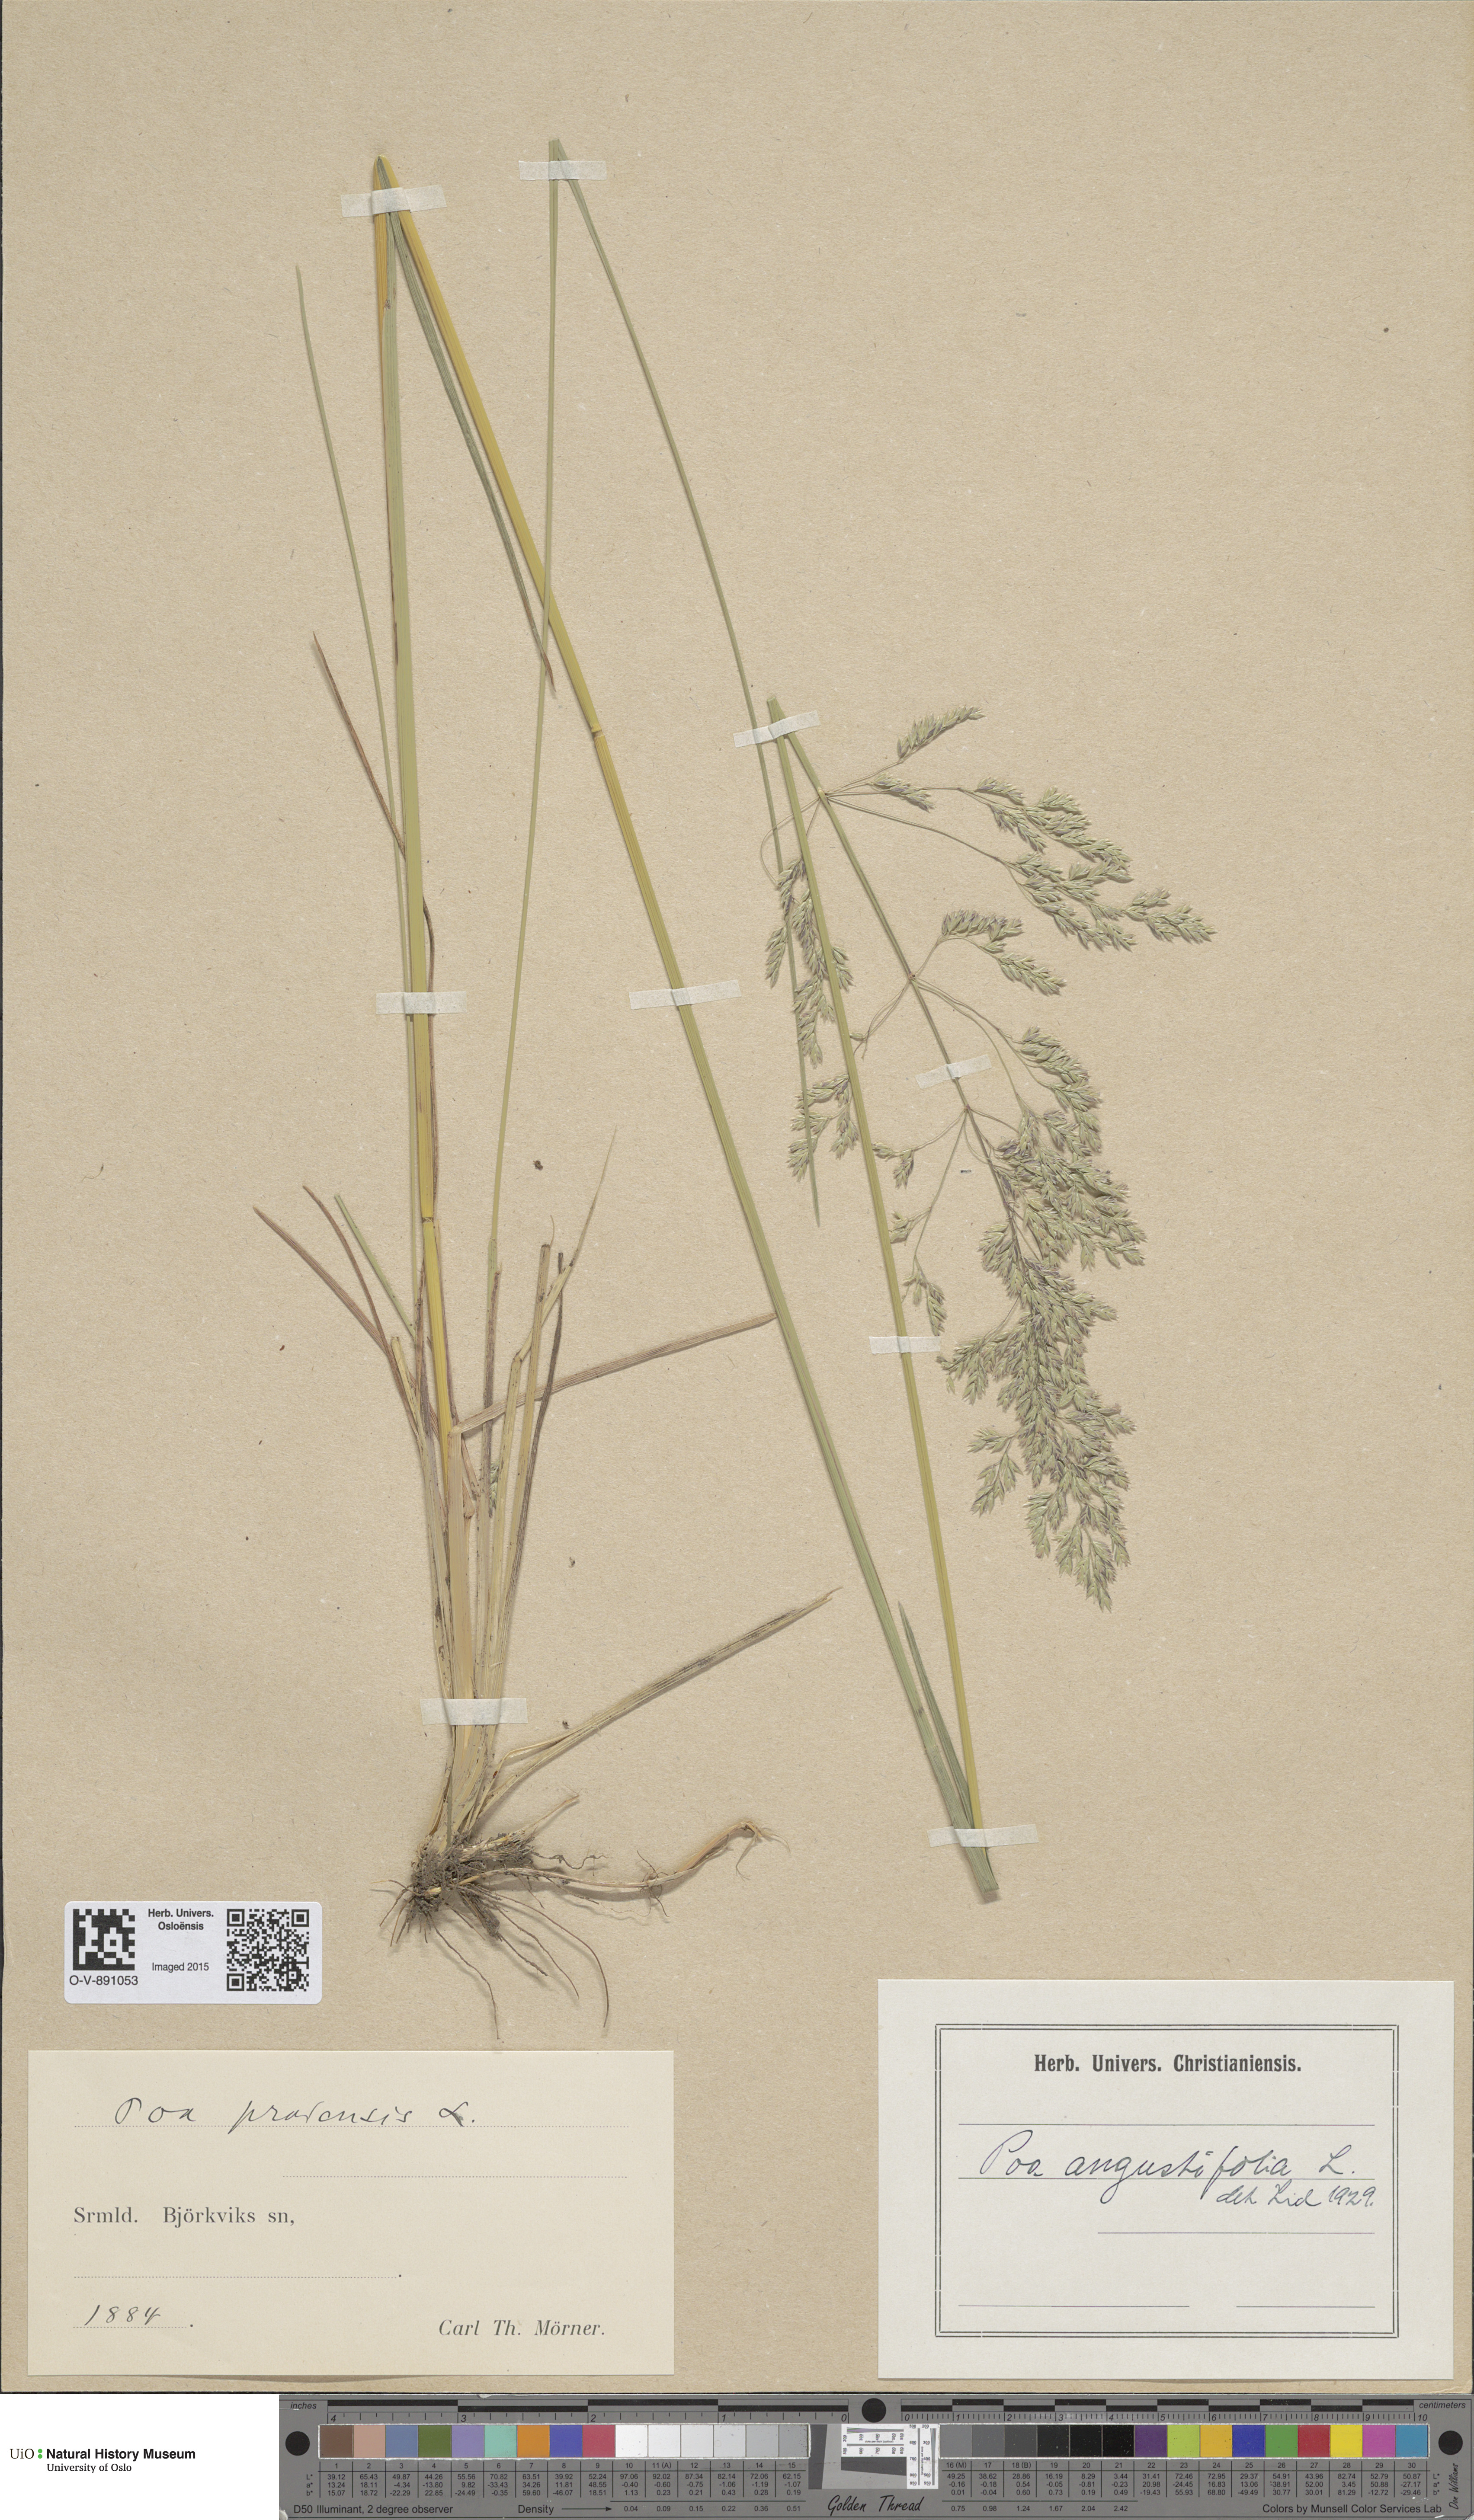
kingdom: Plantae
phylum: Tracheophyta
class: Liliopsida
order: Poales
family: Poaceae
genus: Poa
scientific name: Poa angustifolia
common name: Narrow-leaved meadow-grass
